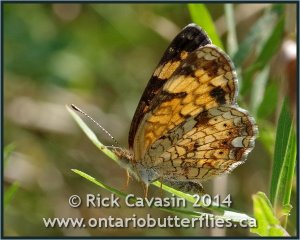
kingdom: Animalia
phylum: Arthropoda
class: Insecta
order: Lepidoptera
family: Nymphalidae
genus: Phyciodes
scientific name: Phyciodes tharos
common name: Pearl Crescent
